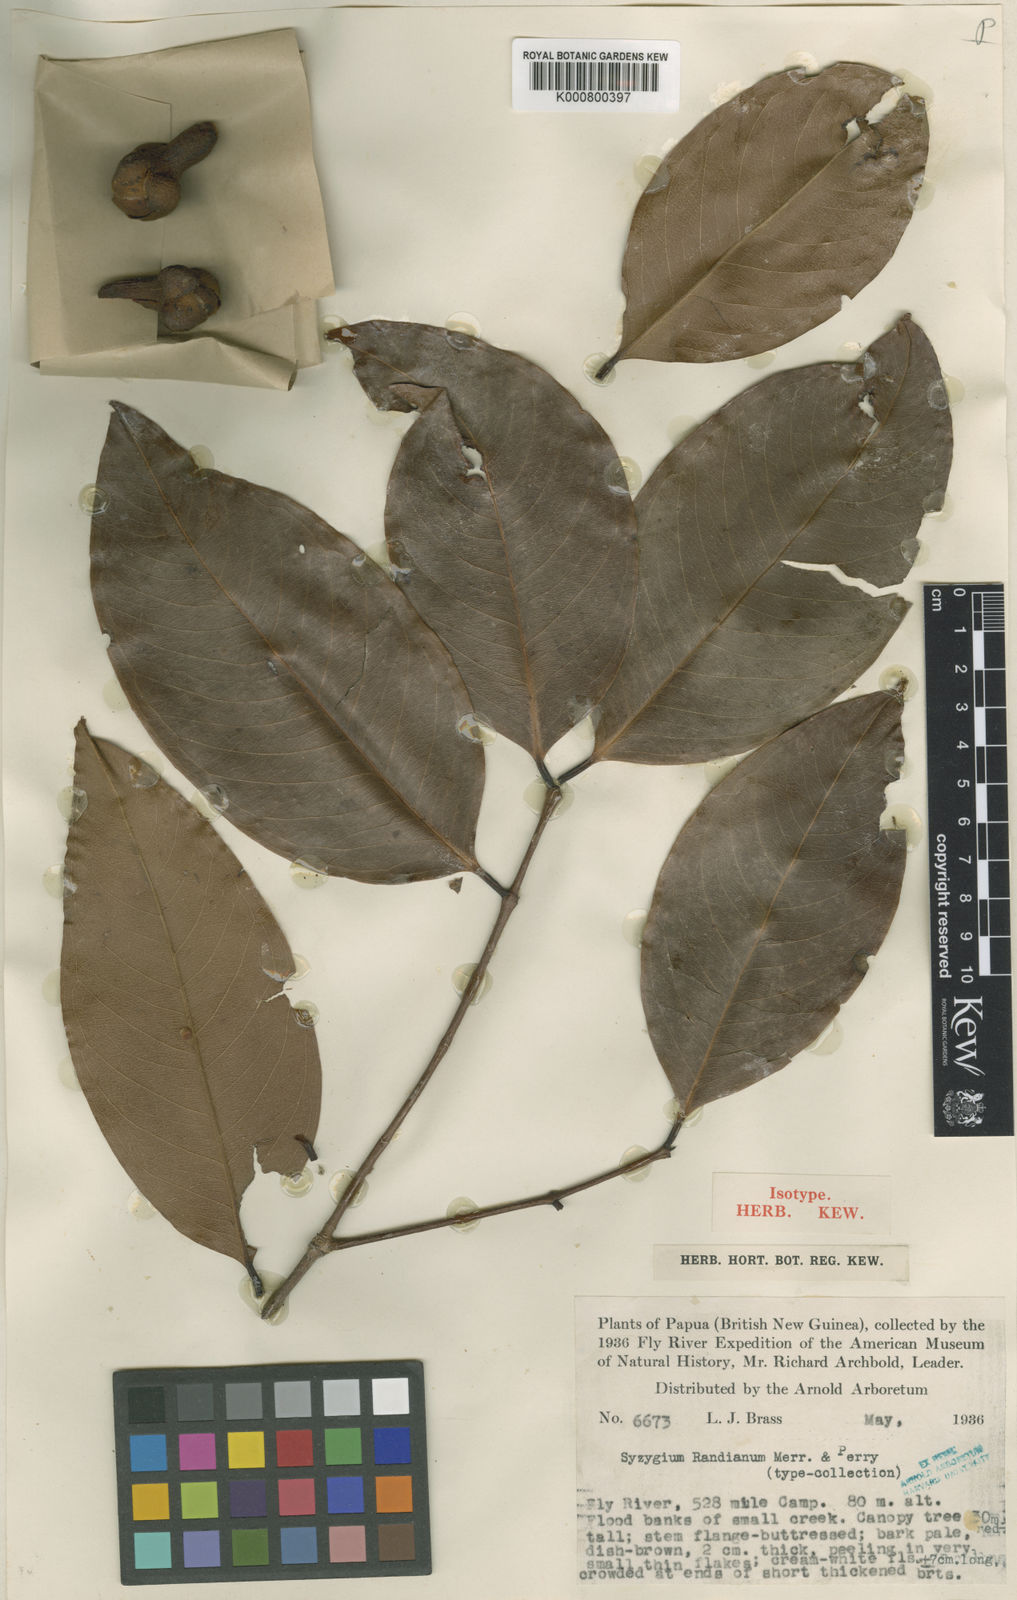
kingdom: Plantae
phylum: Tracheophyta
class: Magnoliopsida
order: Myrtales
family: Myrtaceae
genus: Syzygium
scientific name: Syzygium randianum
